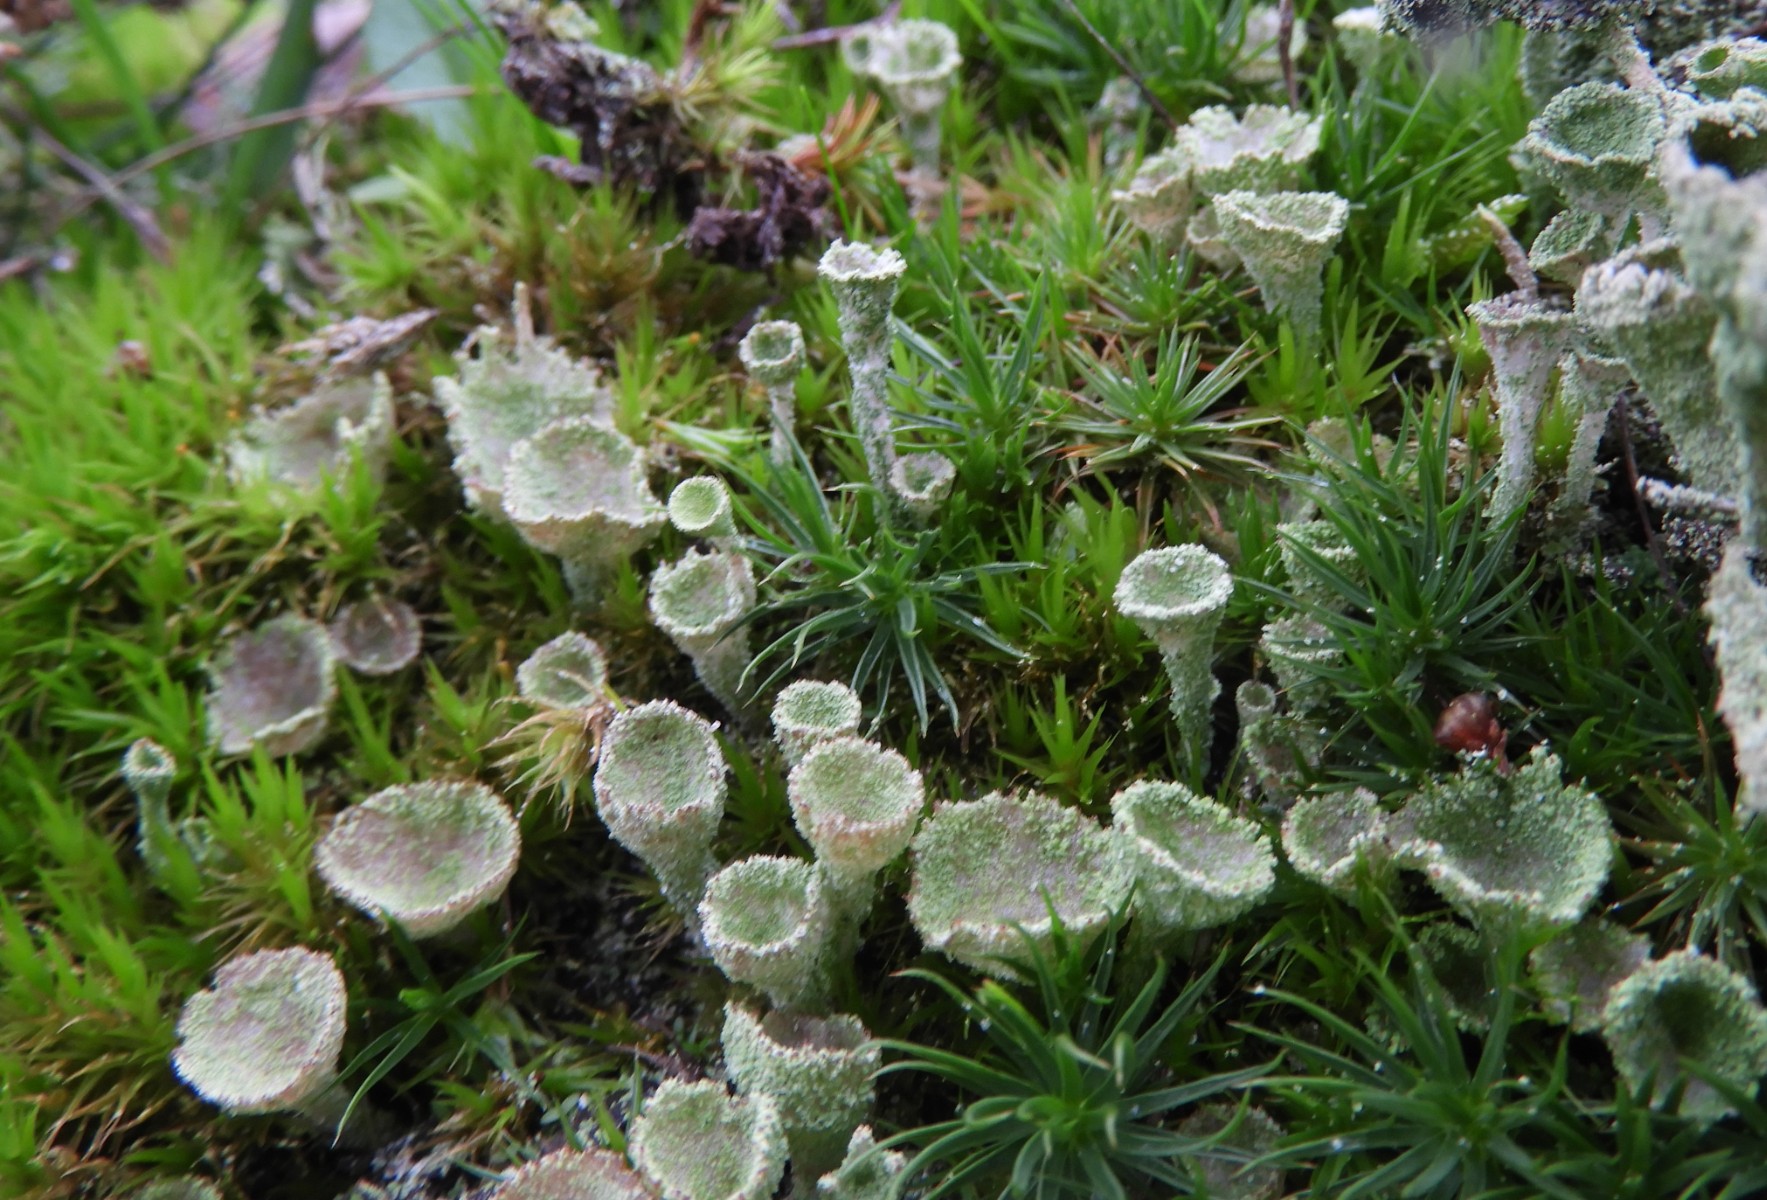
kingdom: Fungi
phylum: Ascomycota
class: Lecanoromycetes
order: Lecanorales
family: Cladoniaceae
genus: Cladonia
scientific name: Cladonia
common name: brungrøn bægerlav
